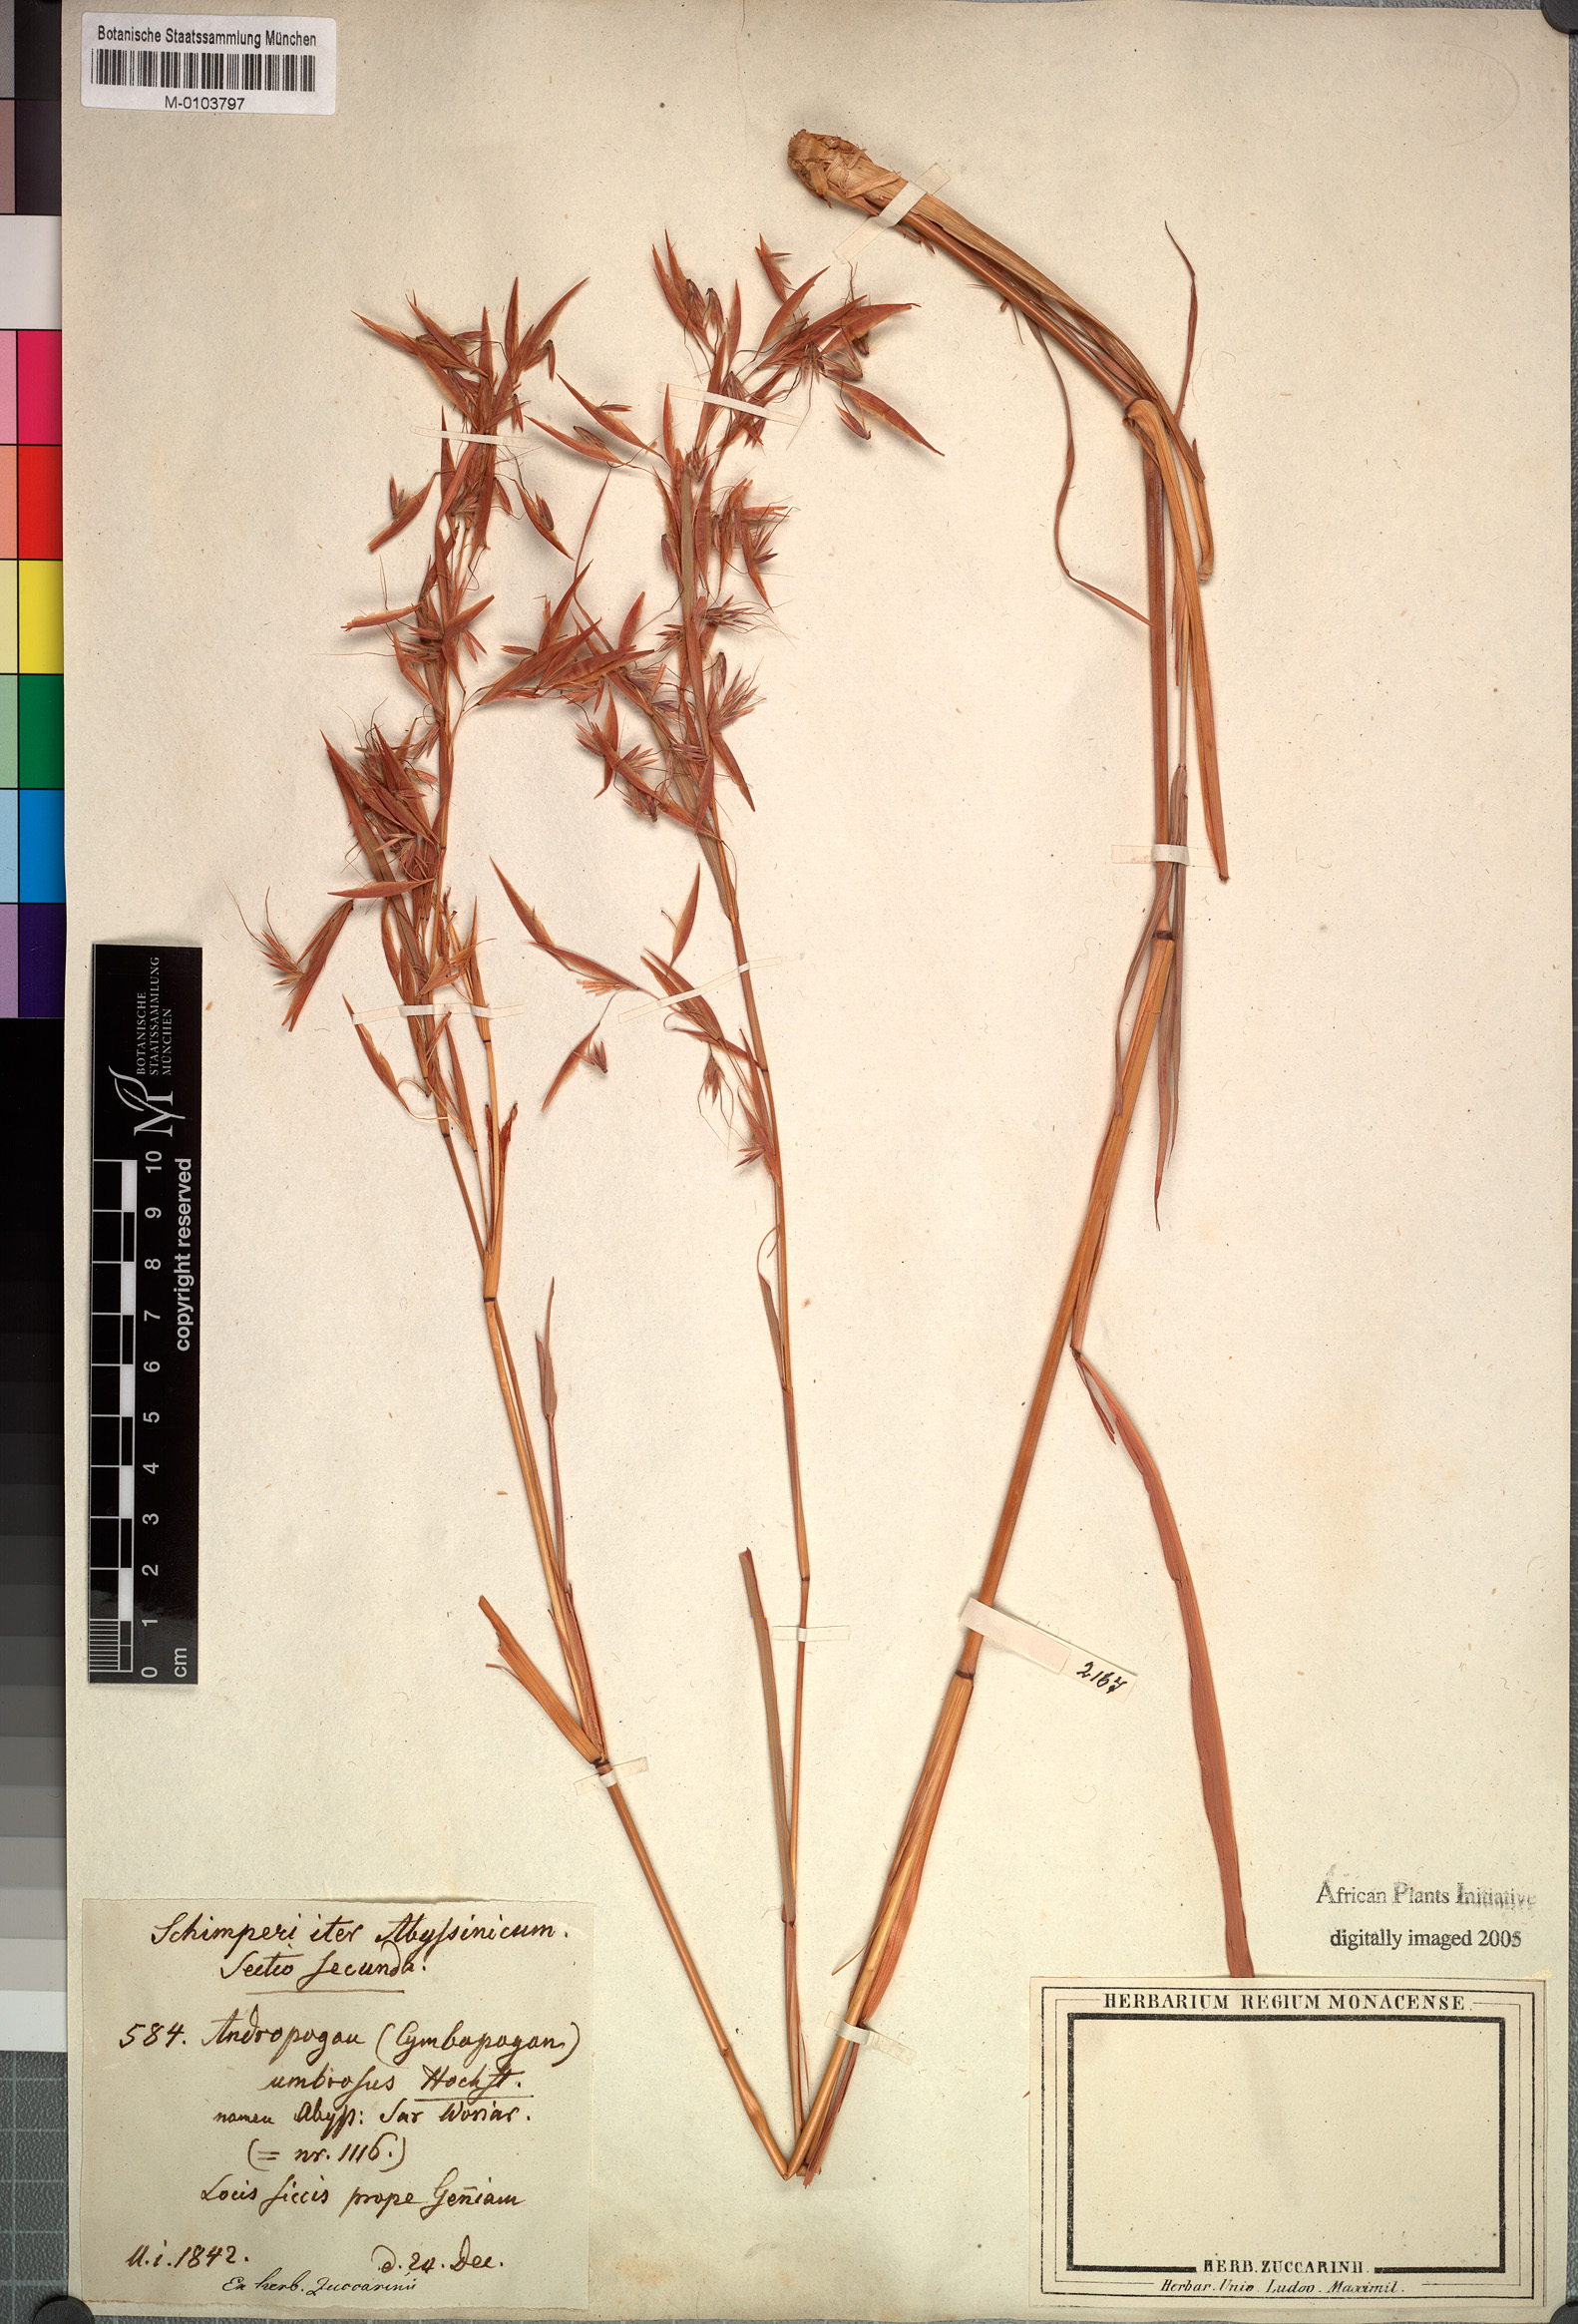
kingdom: Plantae
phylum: Tracheophyta
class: Liliopsida
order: Poales
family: Poaceae
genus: Hyparrhenia
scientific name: Hyparrhenia umbrosa
